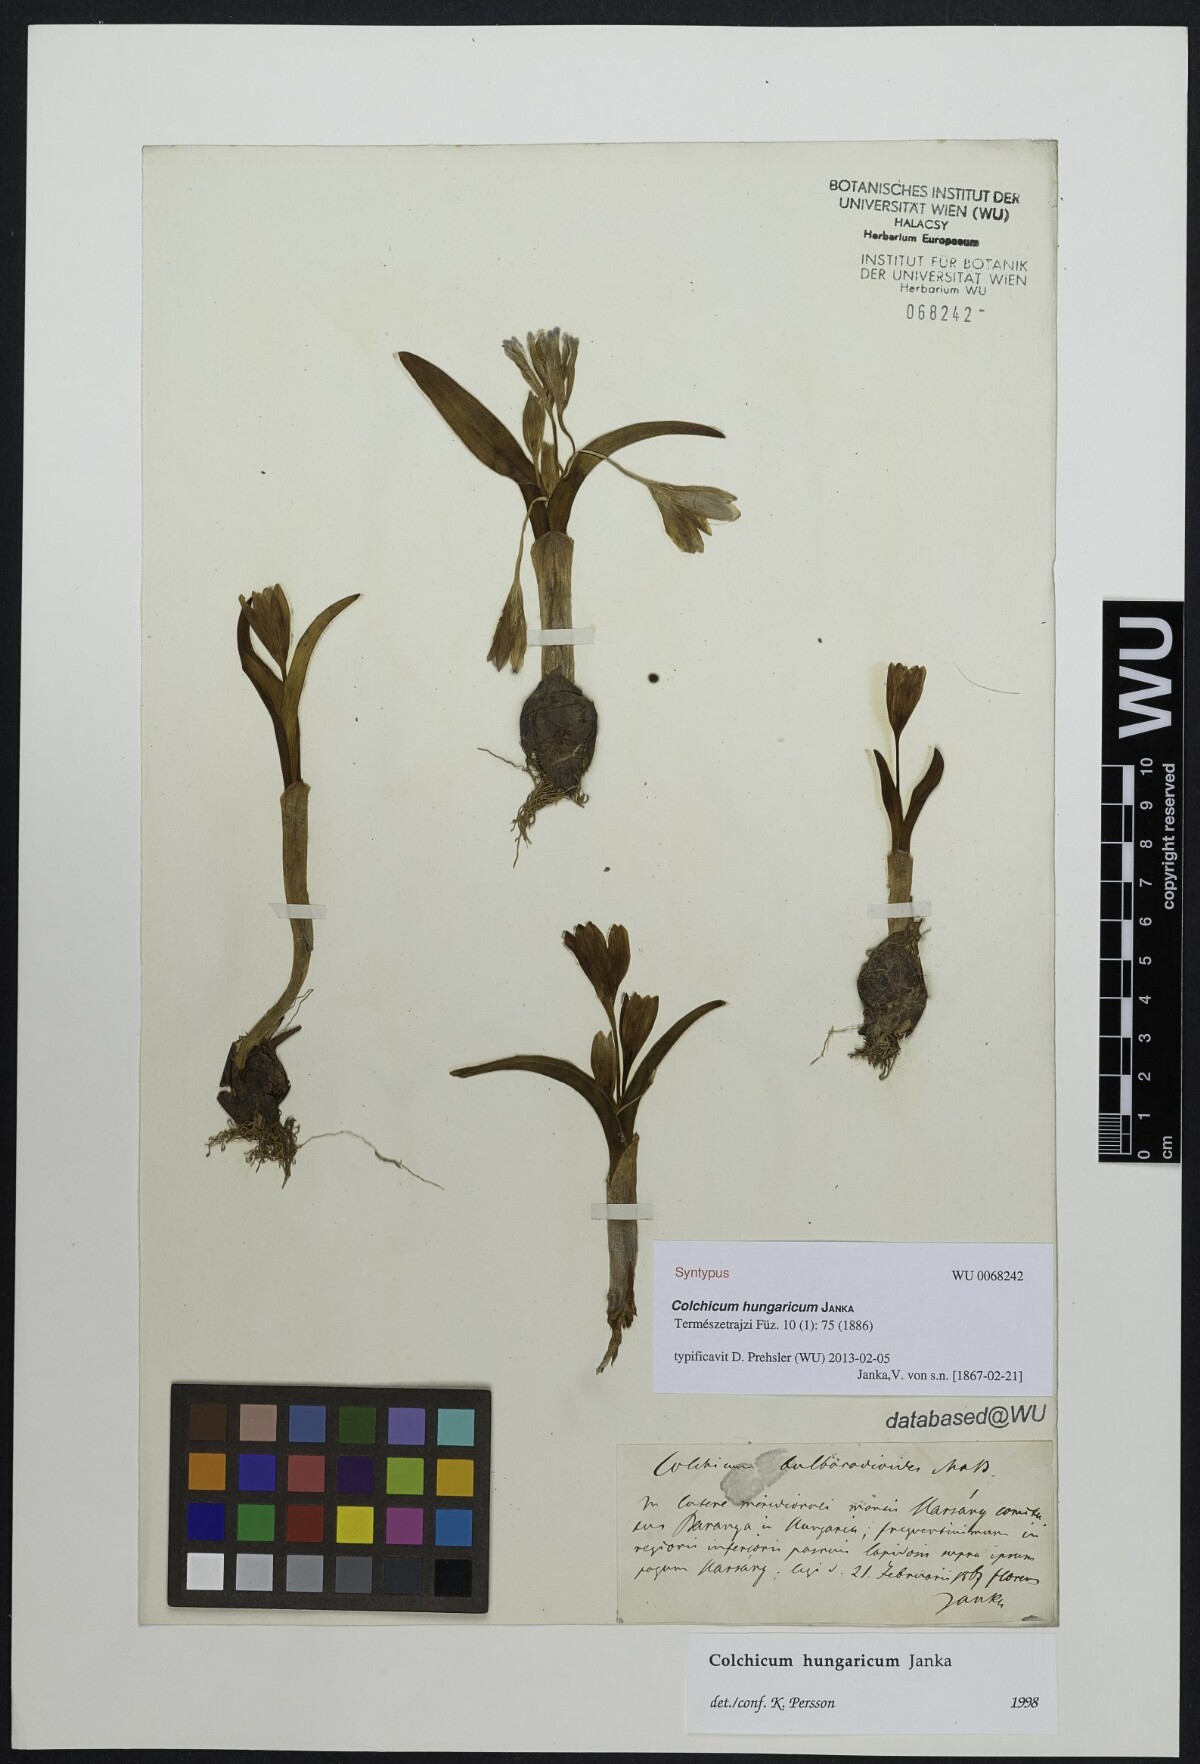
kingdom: Plantae
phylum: Tracheophyta
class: Liliopsida
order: Liliales
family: Colchicaceae
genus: Colchicum
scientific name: Colchicum hungaricum
